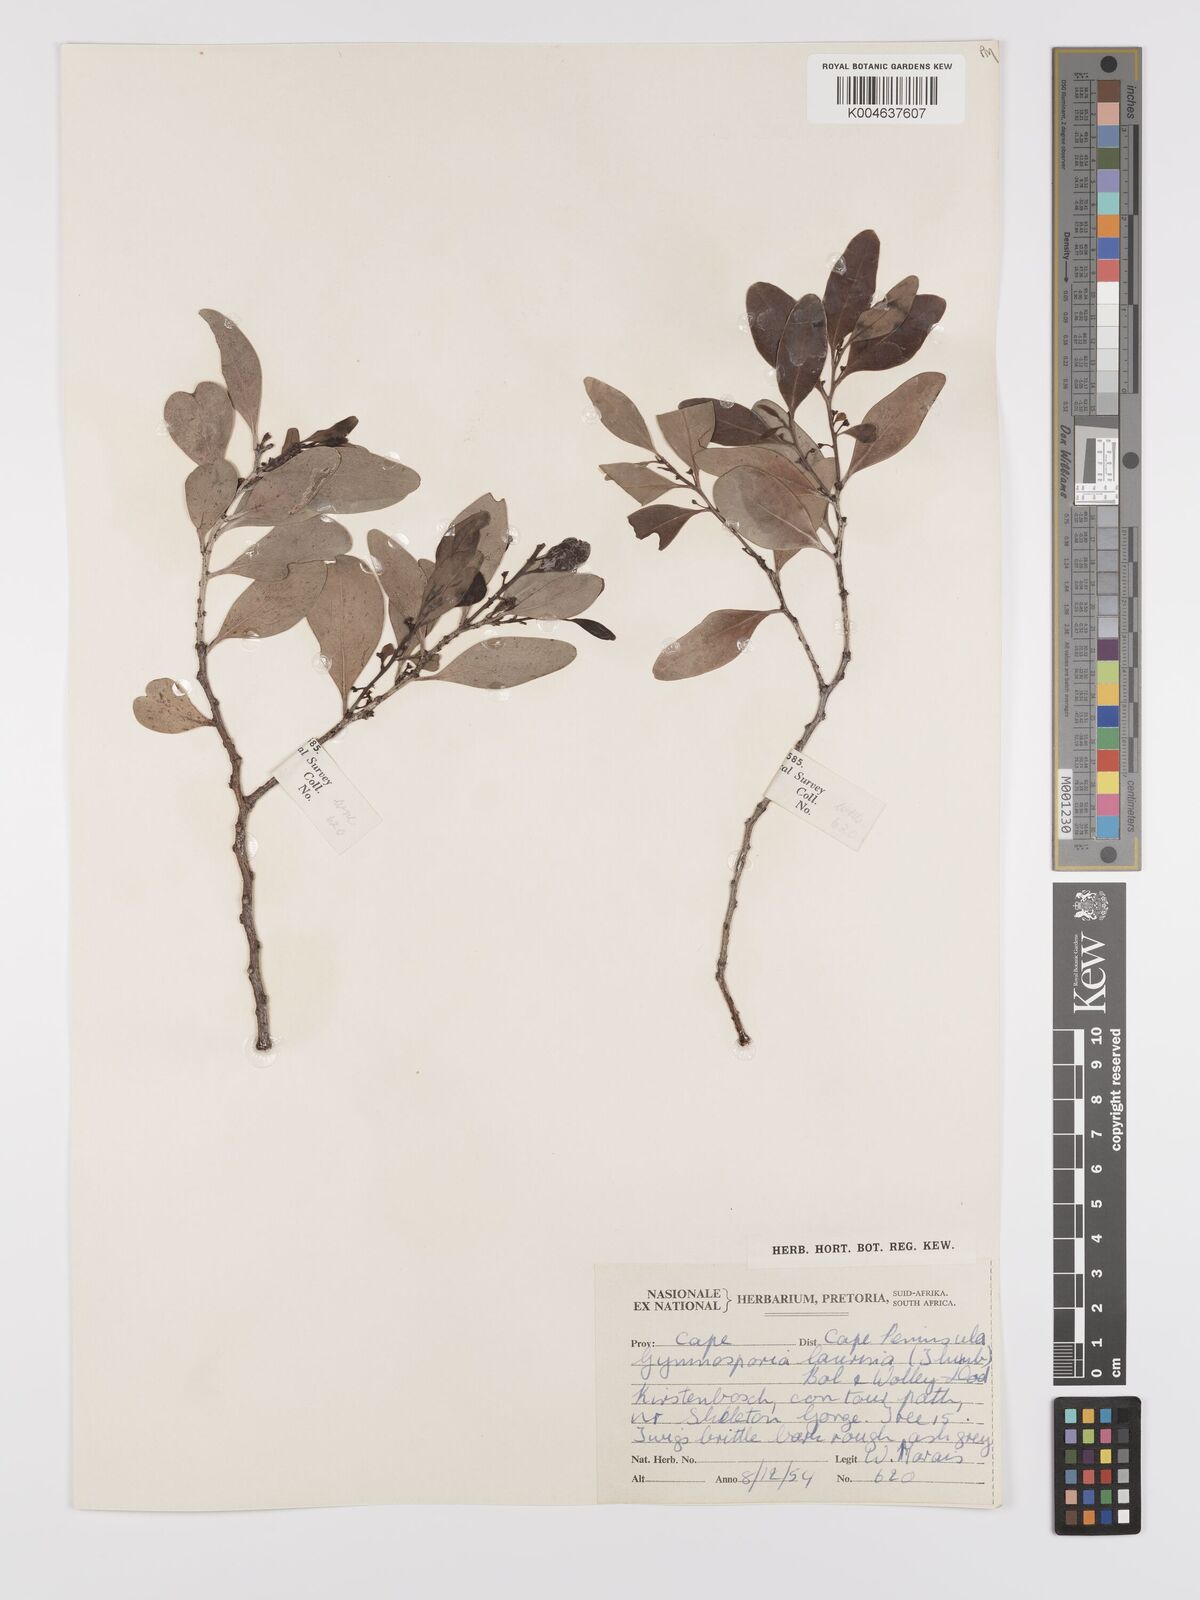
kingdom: Plantae
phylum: Tracheophyta
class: Magnoliopsida
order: Celastrales
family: Celastraceae
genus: Monteverdia
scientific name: Monteverdia laurina
